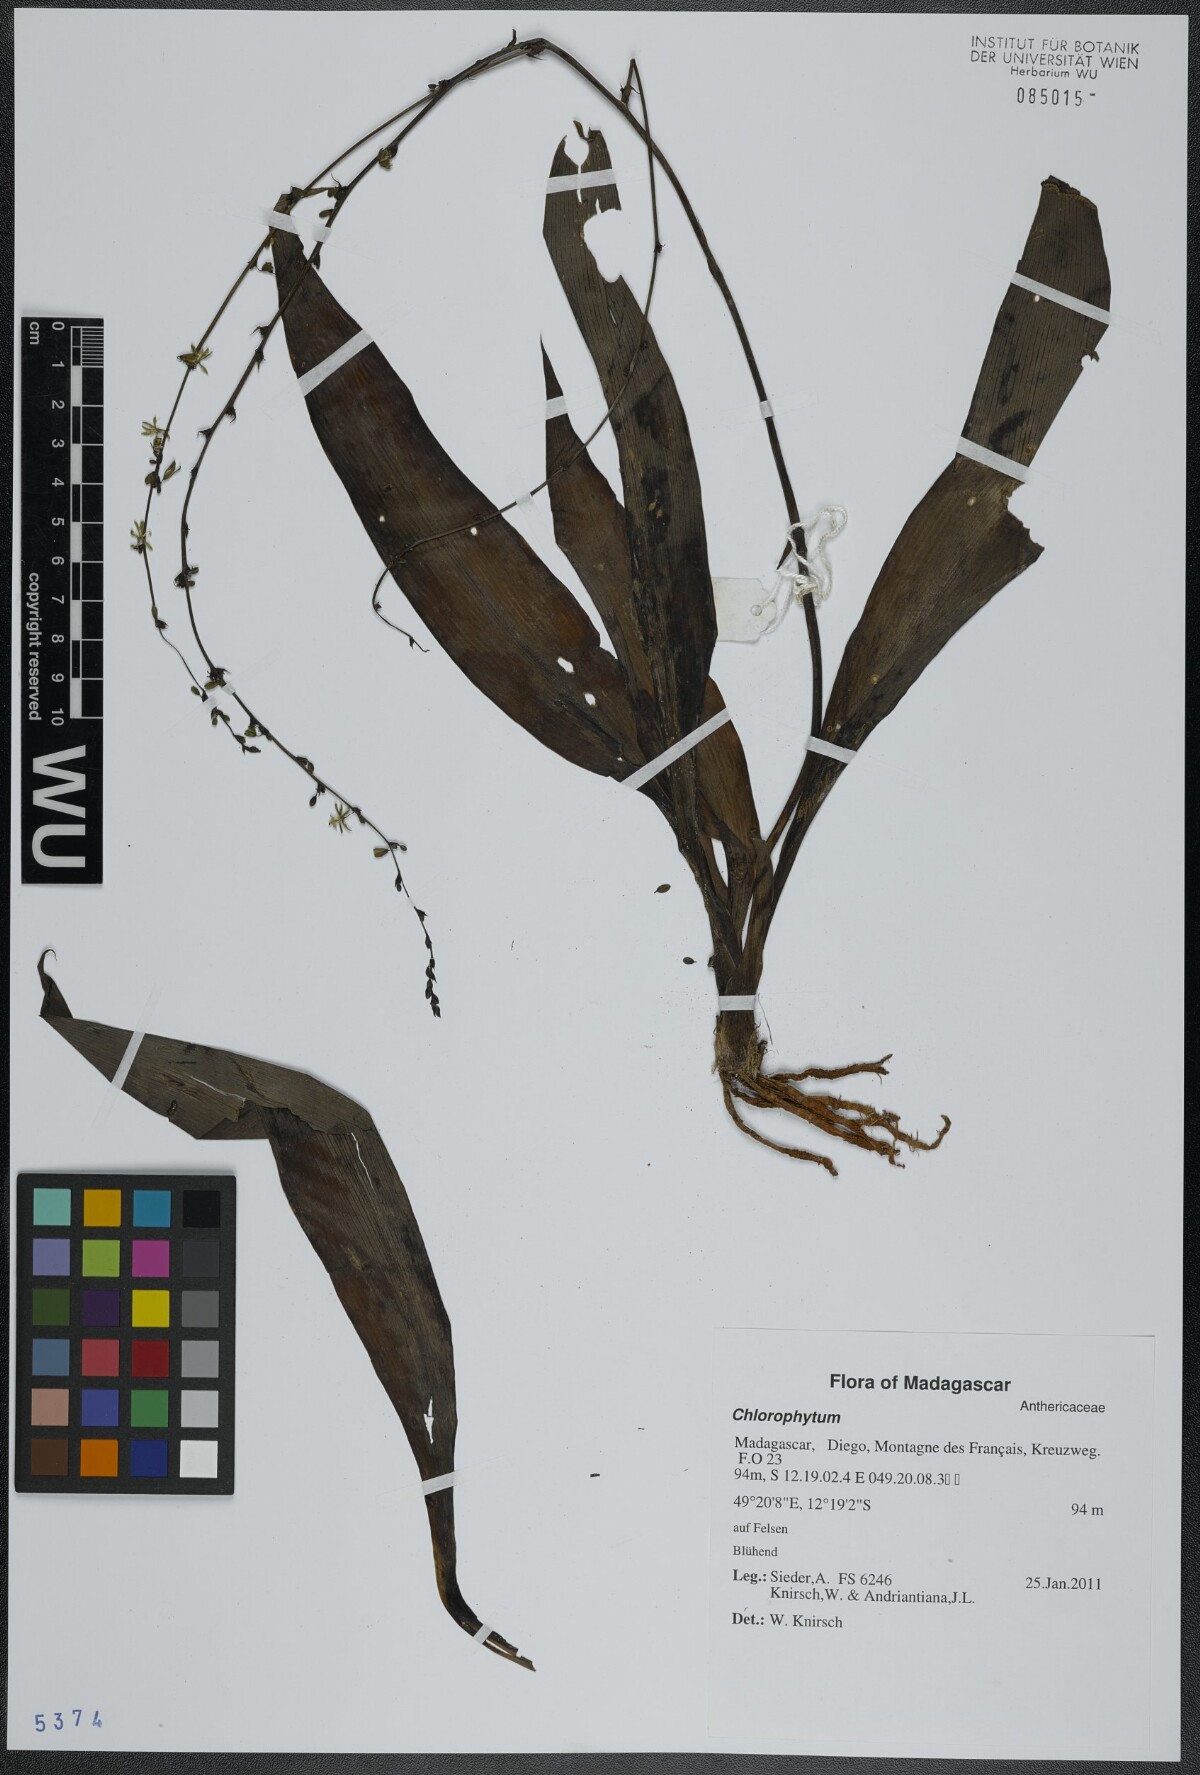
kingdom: Plantae
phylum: Tracheophyta
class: Liliopsida
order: Asparagales
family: Asparagaceae
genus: Chlorophytum
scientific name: Chlorophytum
